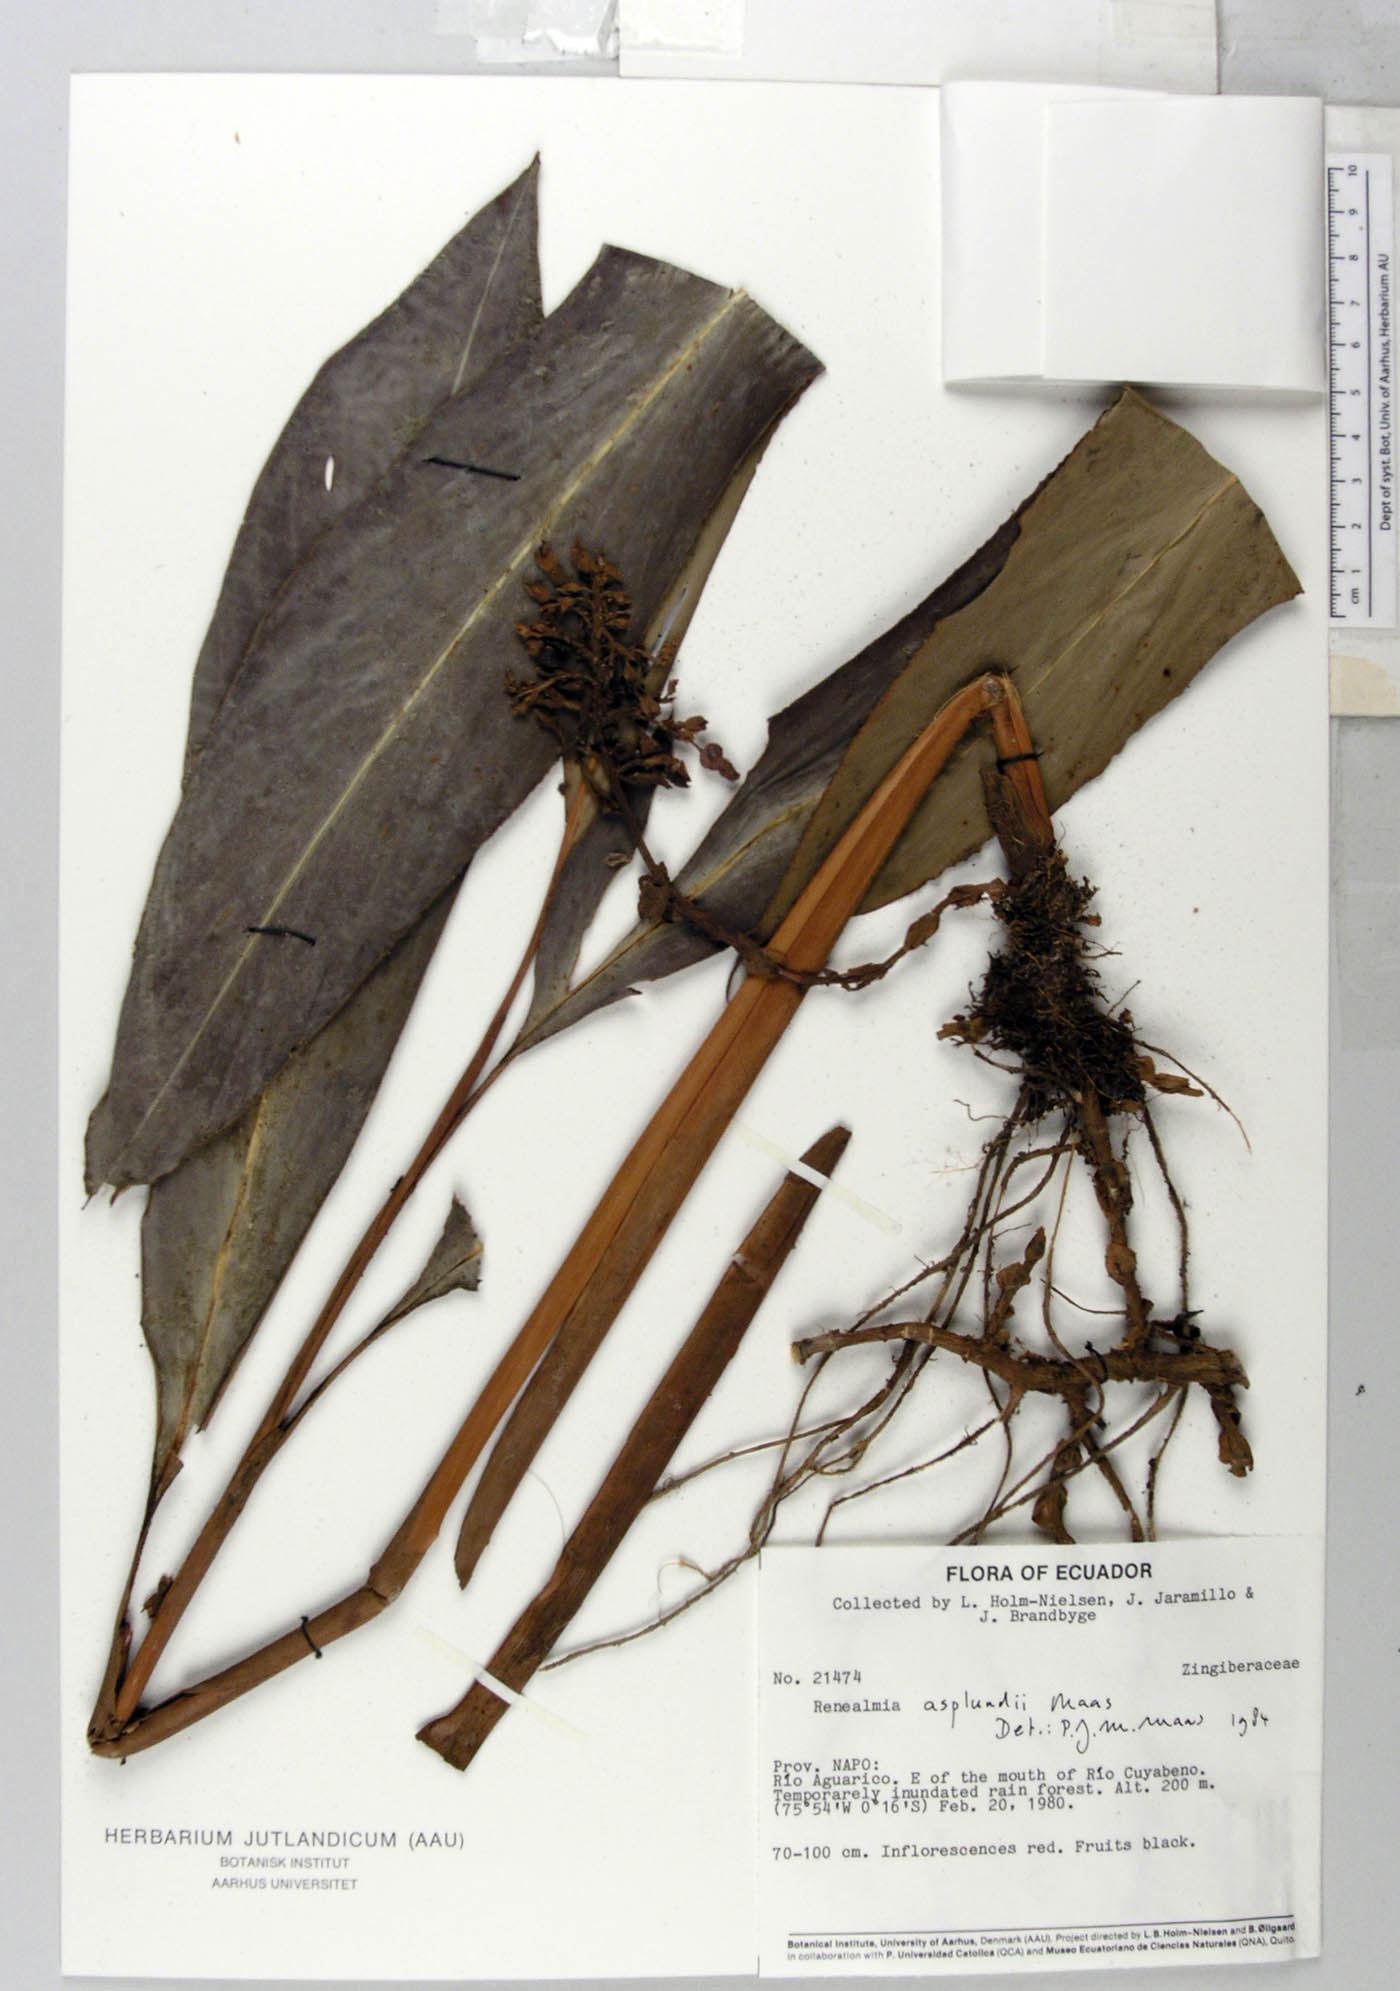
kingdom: Plantae
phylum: Tracheophyta
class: Liliopsida
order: Zingiberales
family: Zingiberaceae
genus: Renealmia
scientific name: Renealmia asplundii
